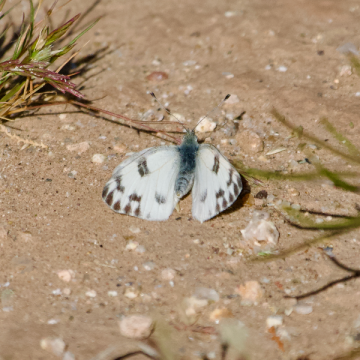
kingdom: Animalia
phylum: Arthropoda
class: Insecta
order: Lepidoptera
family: Pieridae
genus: Pontia
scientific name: Pontia protodice
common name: Checkered White
